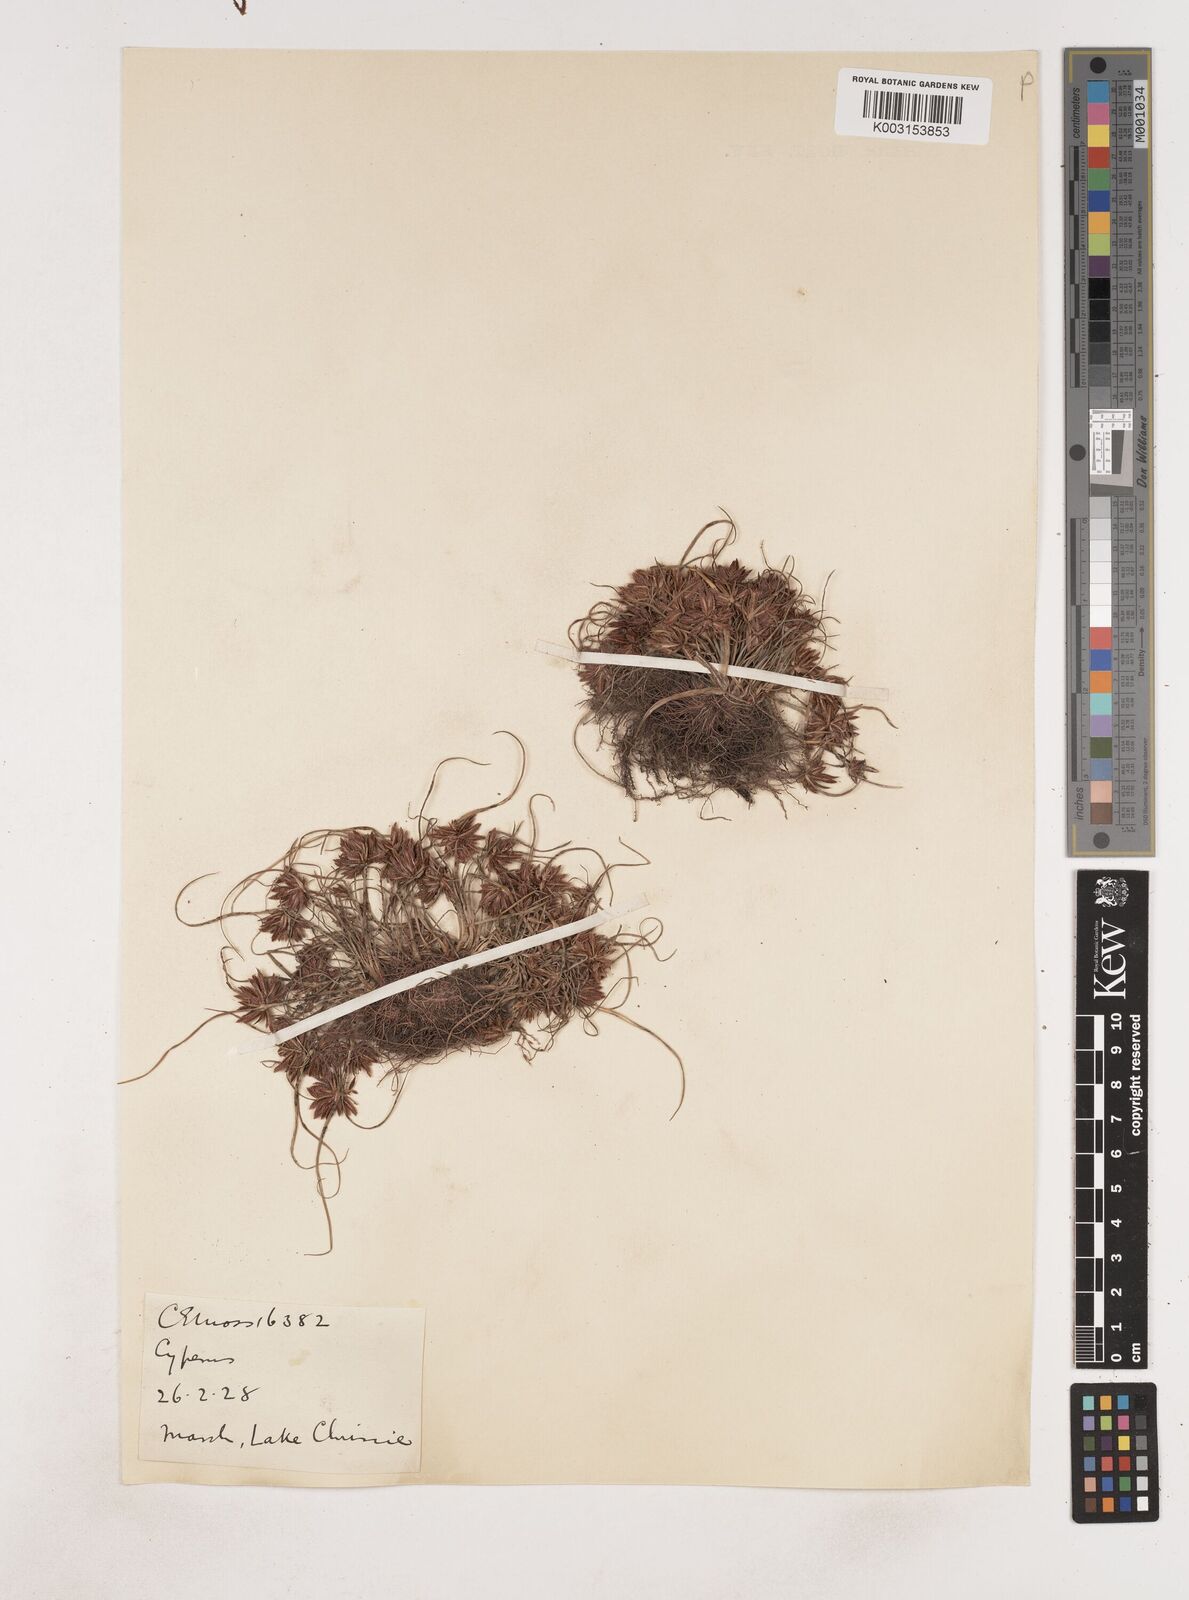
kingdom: Plantae
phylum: Tracheophyta
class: Liliopsida
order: Poales
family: Cyperaceae
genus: Cyperus
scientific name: Cyperus
